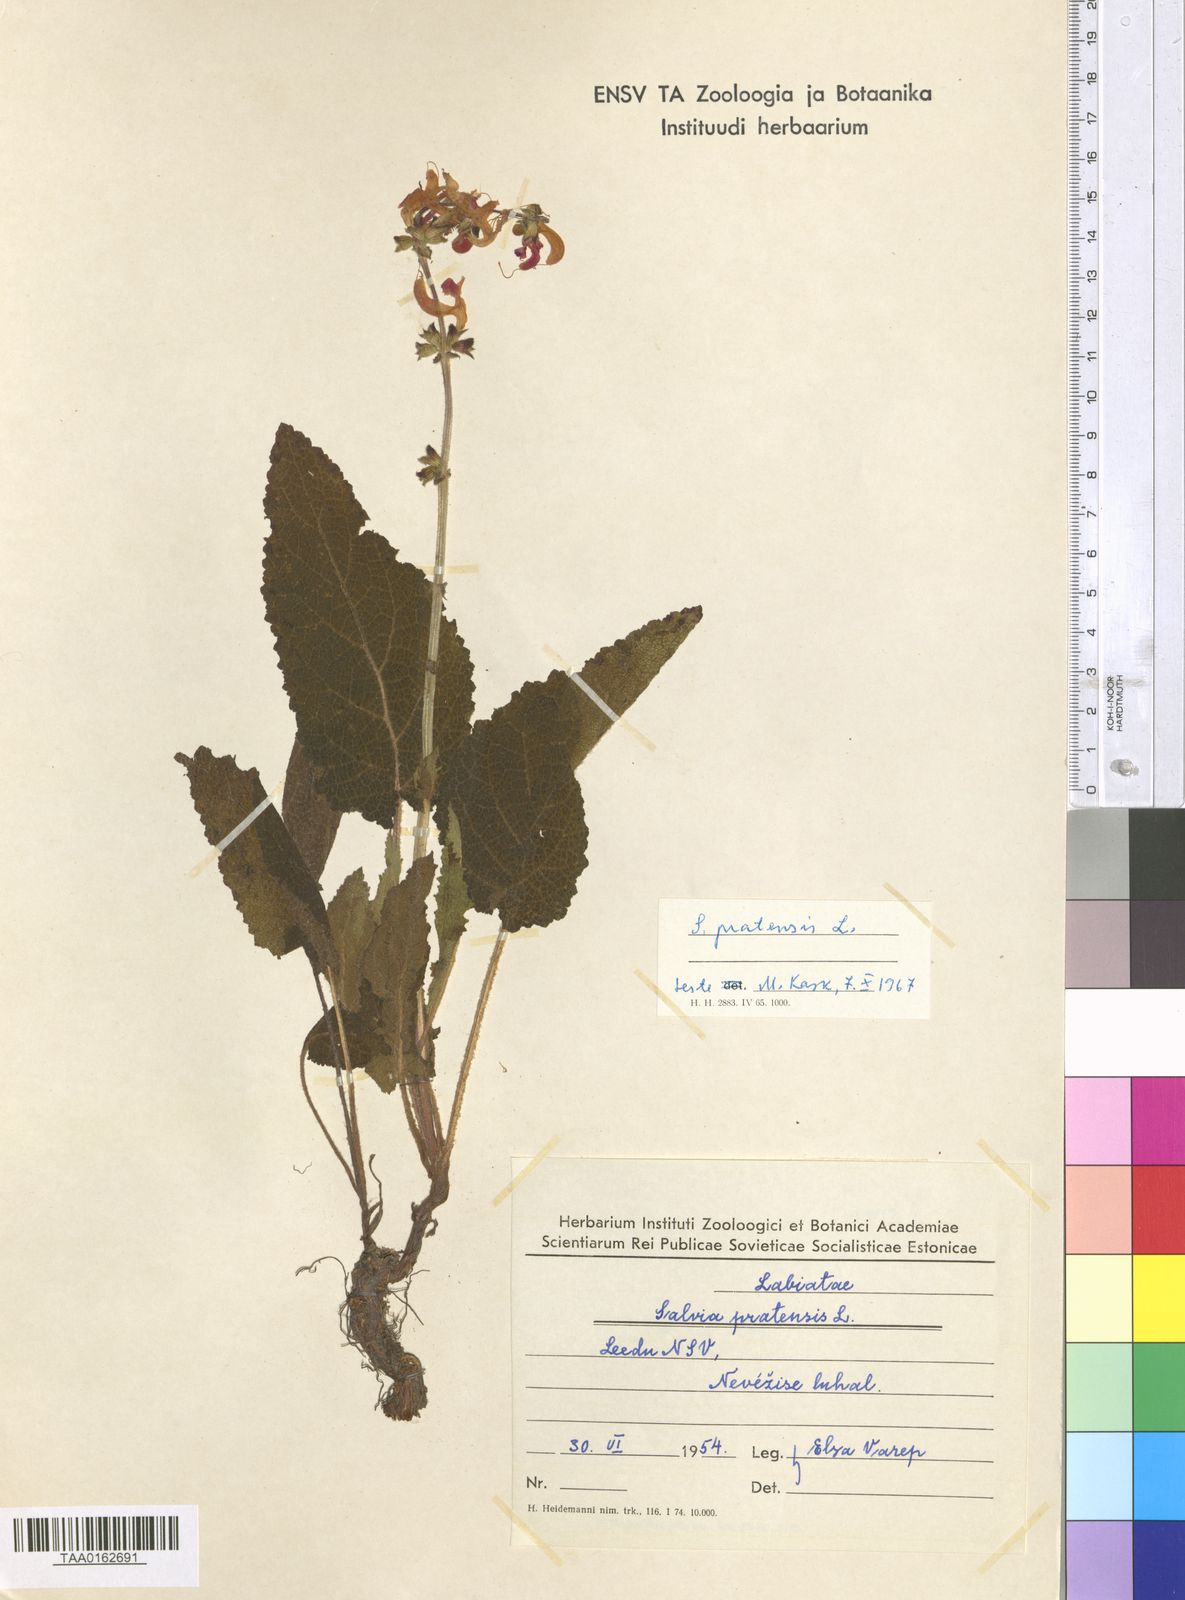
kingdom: Plantae
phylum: Tracheophyta
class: Magnoliopsida
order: Lamiales
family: Lamiaceae
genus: Salvia
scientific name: Salvia pratensis
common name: Meadow sage
